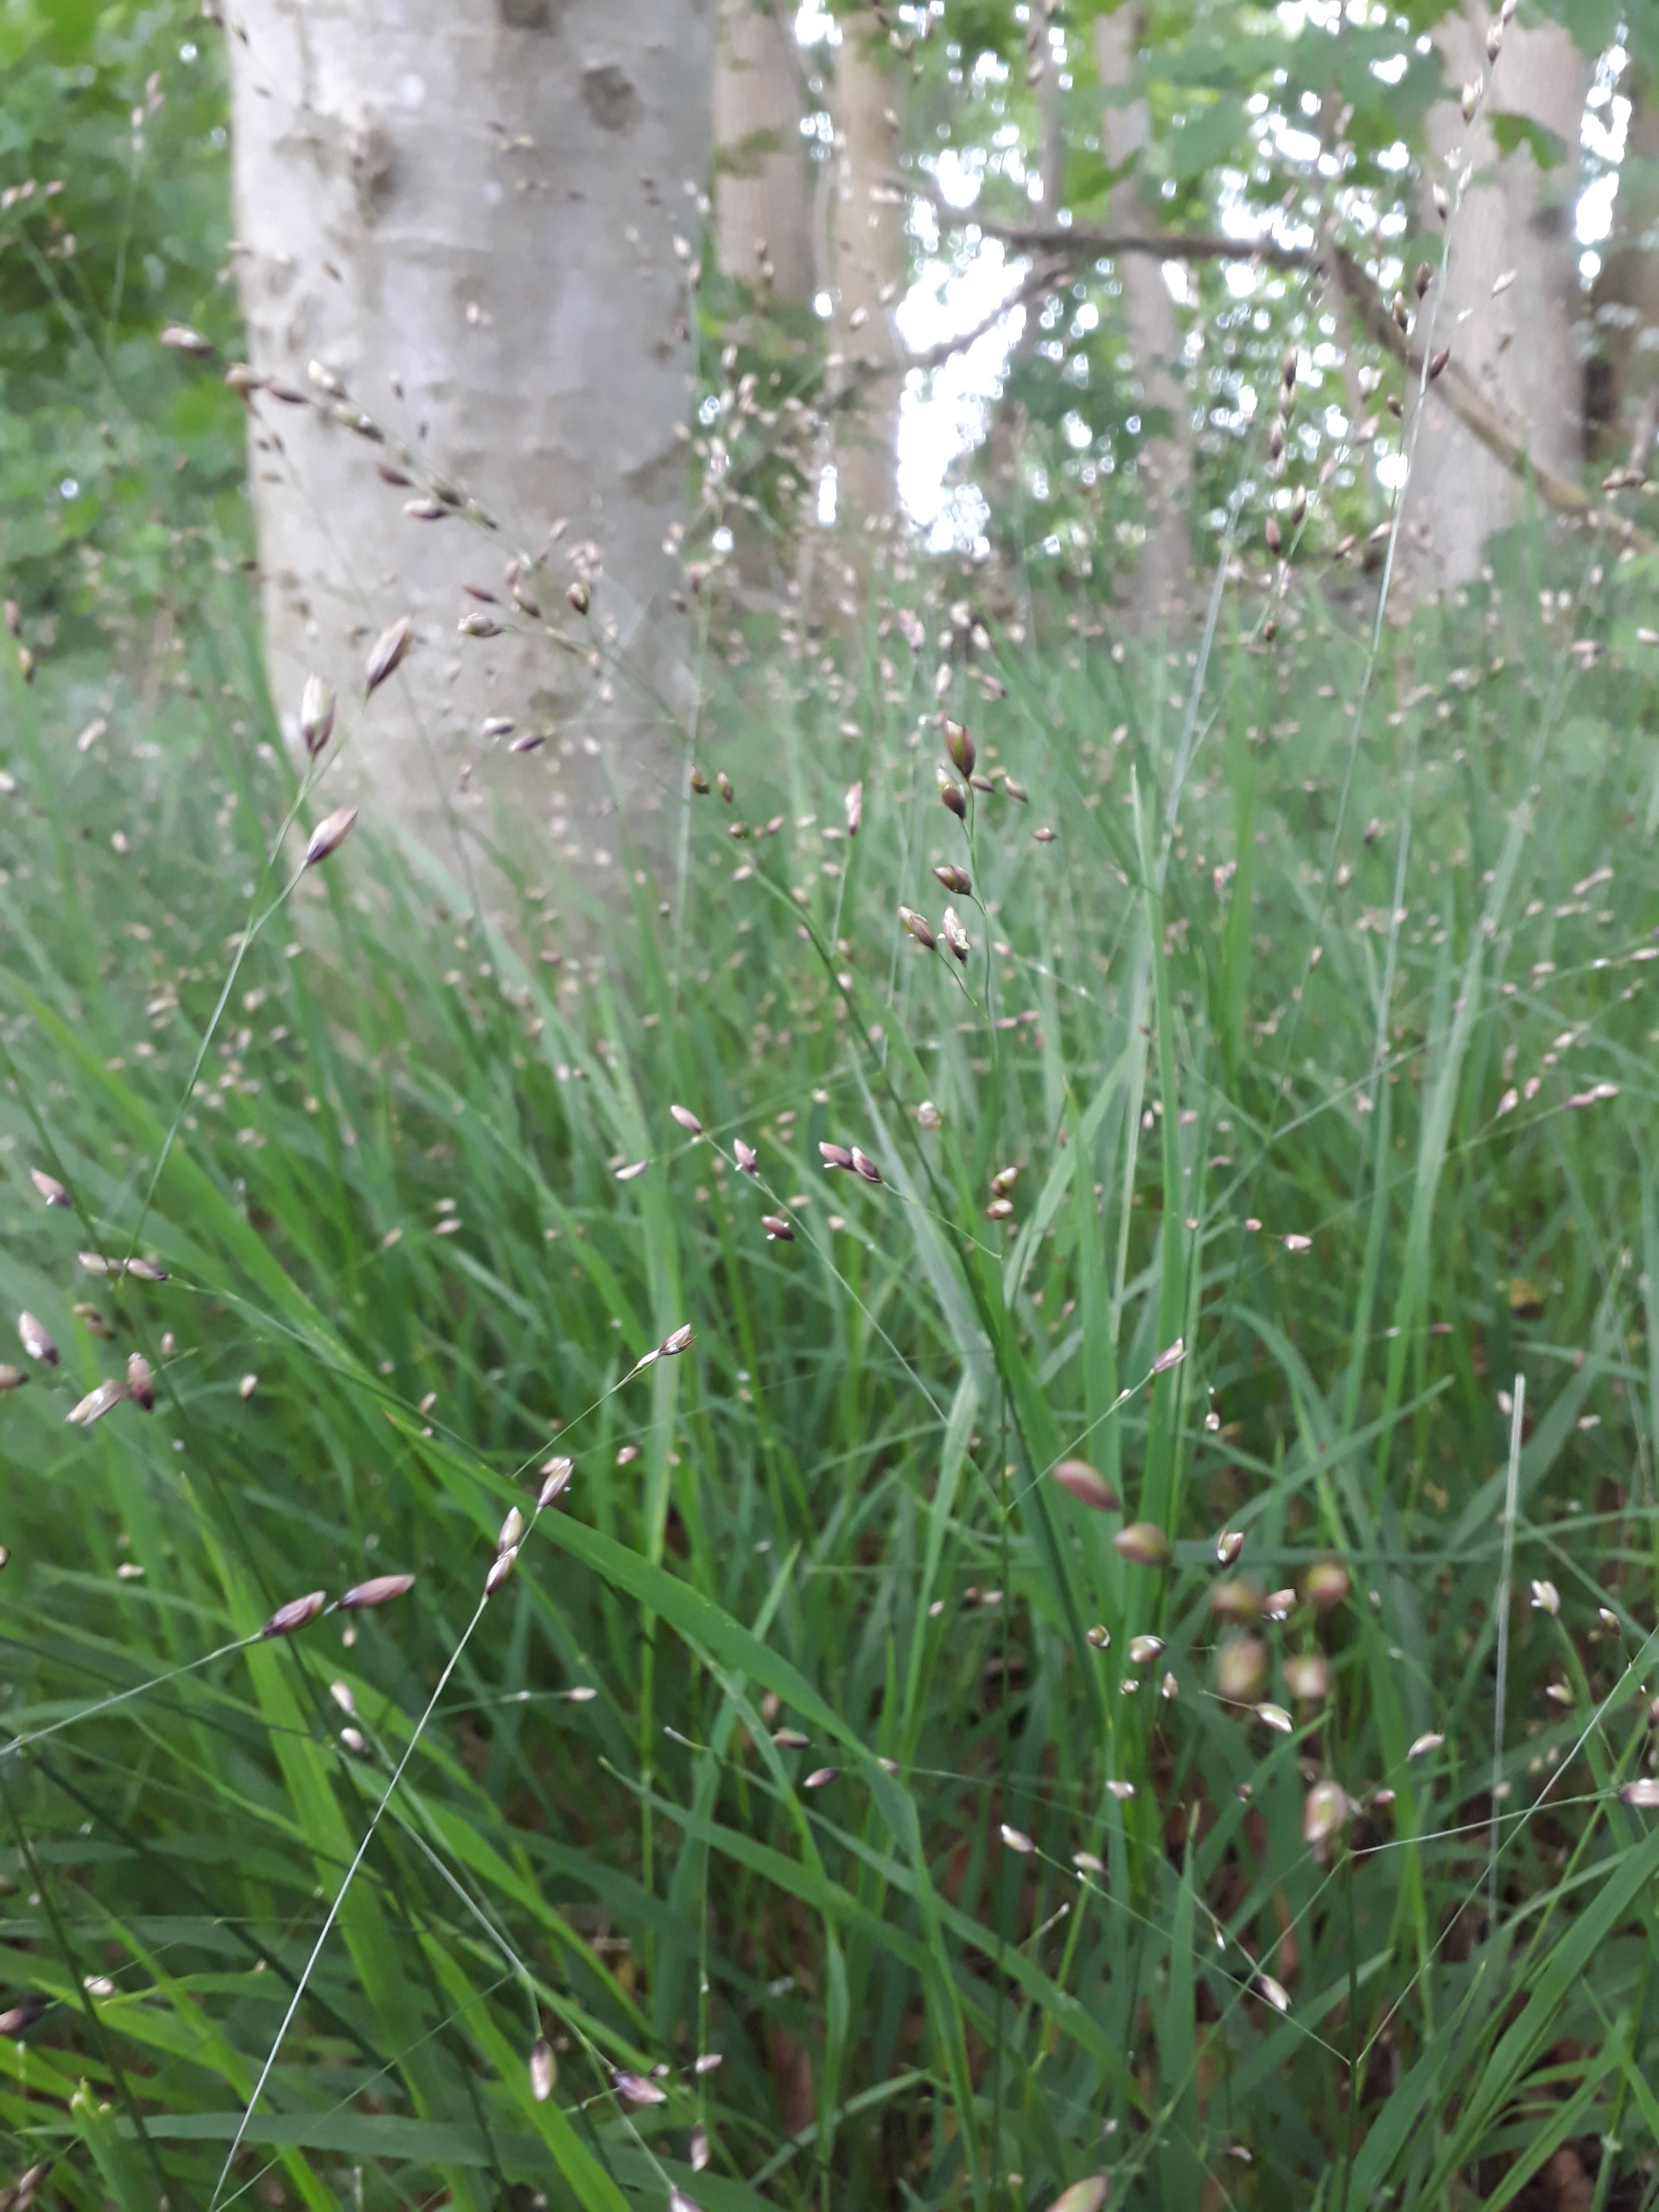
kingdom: Plantae
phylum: Tracheophyta
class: Liliopsida
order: Poales
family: Poaceae
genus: Melica
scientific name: Melica uniflora
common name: Enblomstret flitteraks
